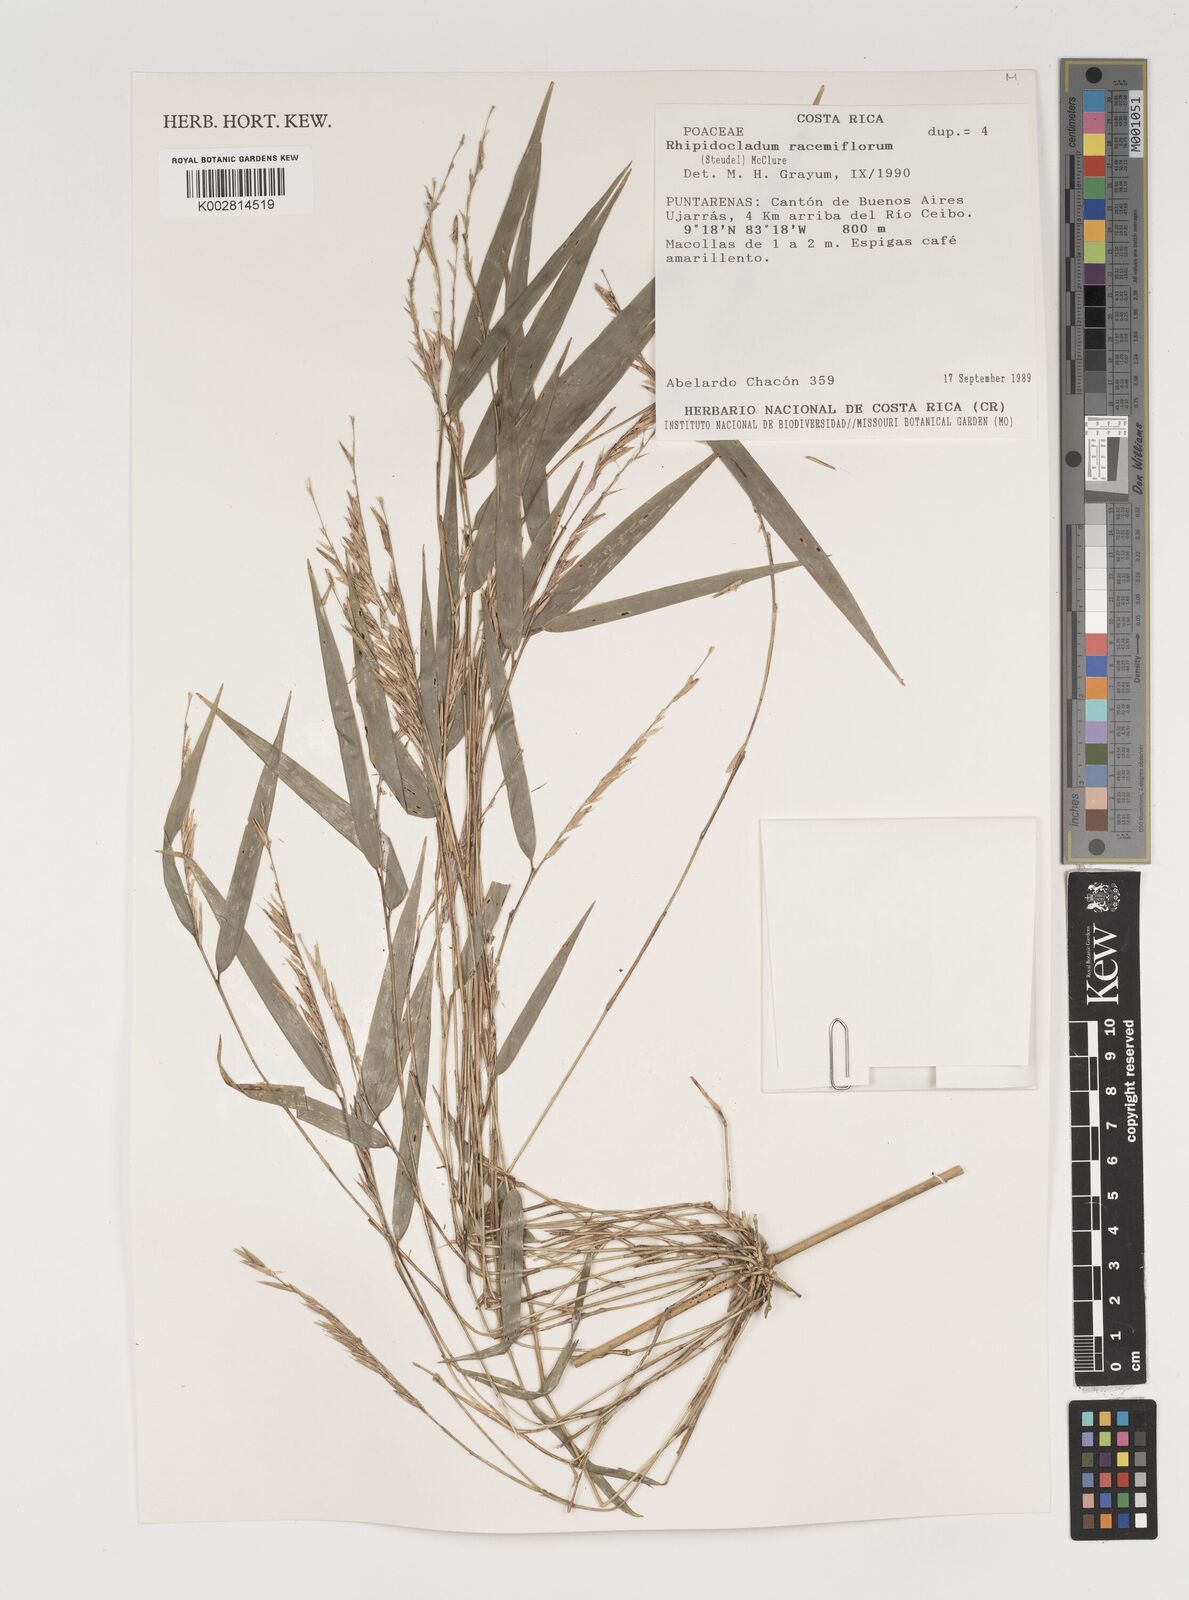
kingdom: Plantae
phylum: Tracheophyta
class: Liliopsida
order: Poales
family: Poaceae
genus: Rhipidocladum
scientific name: Rhipidocladum racemiflorum
